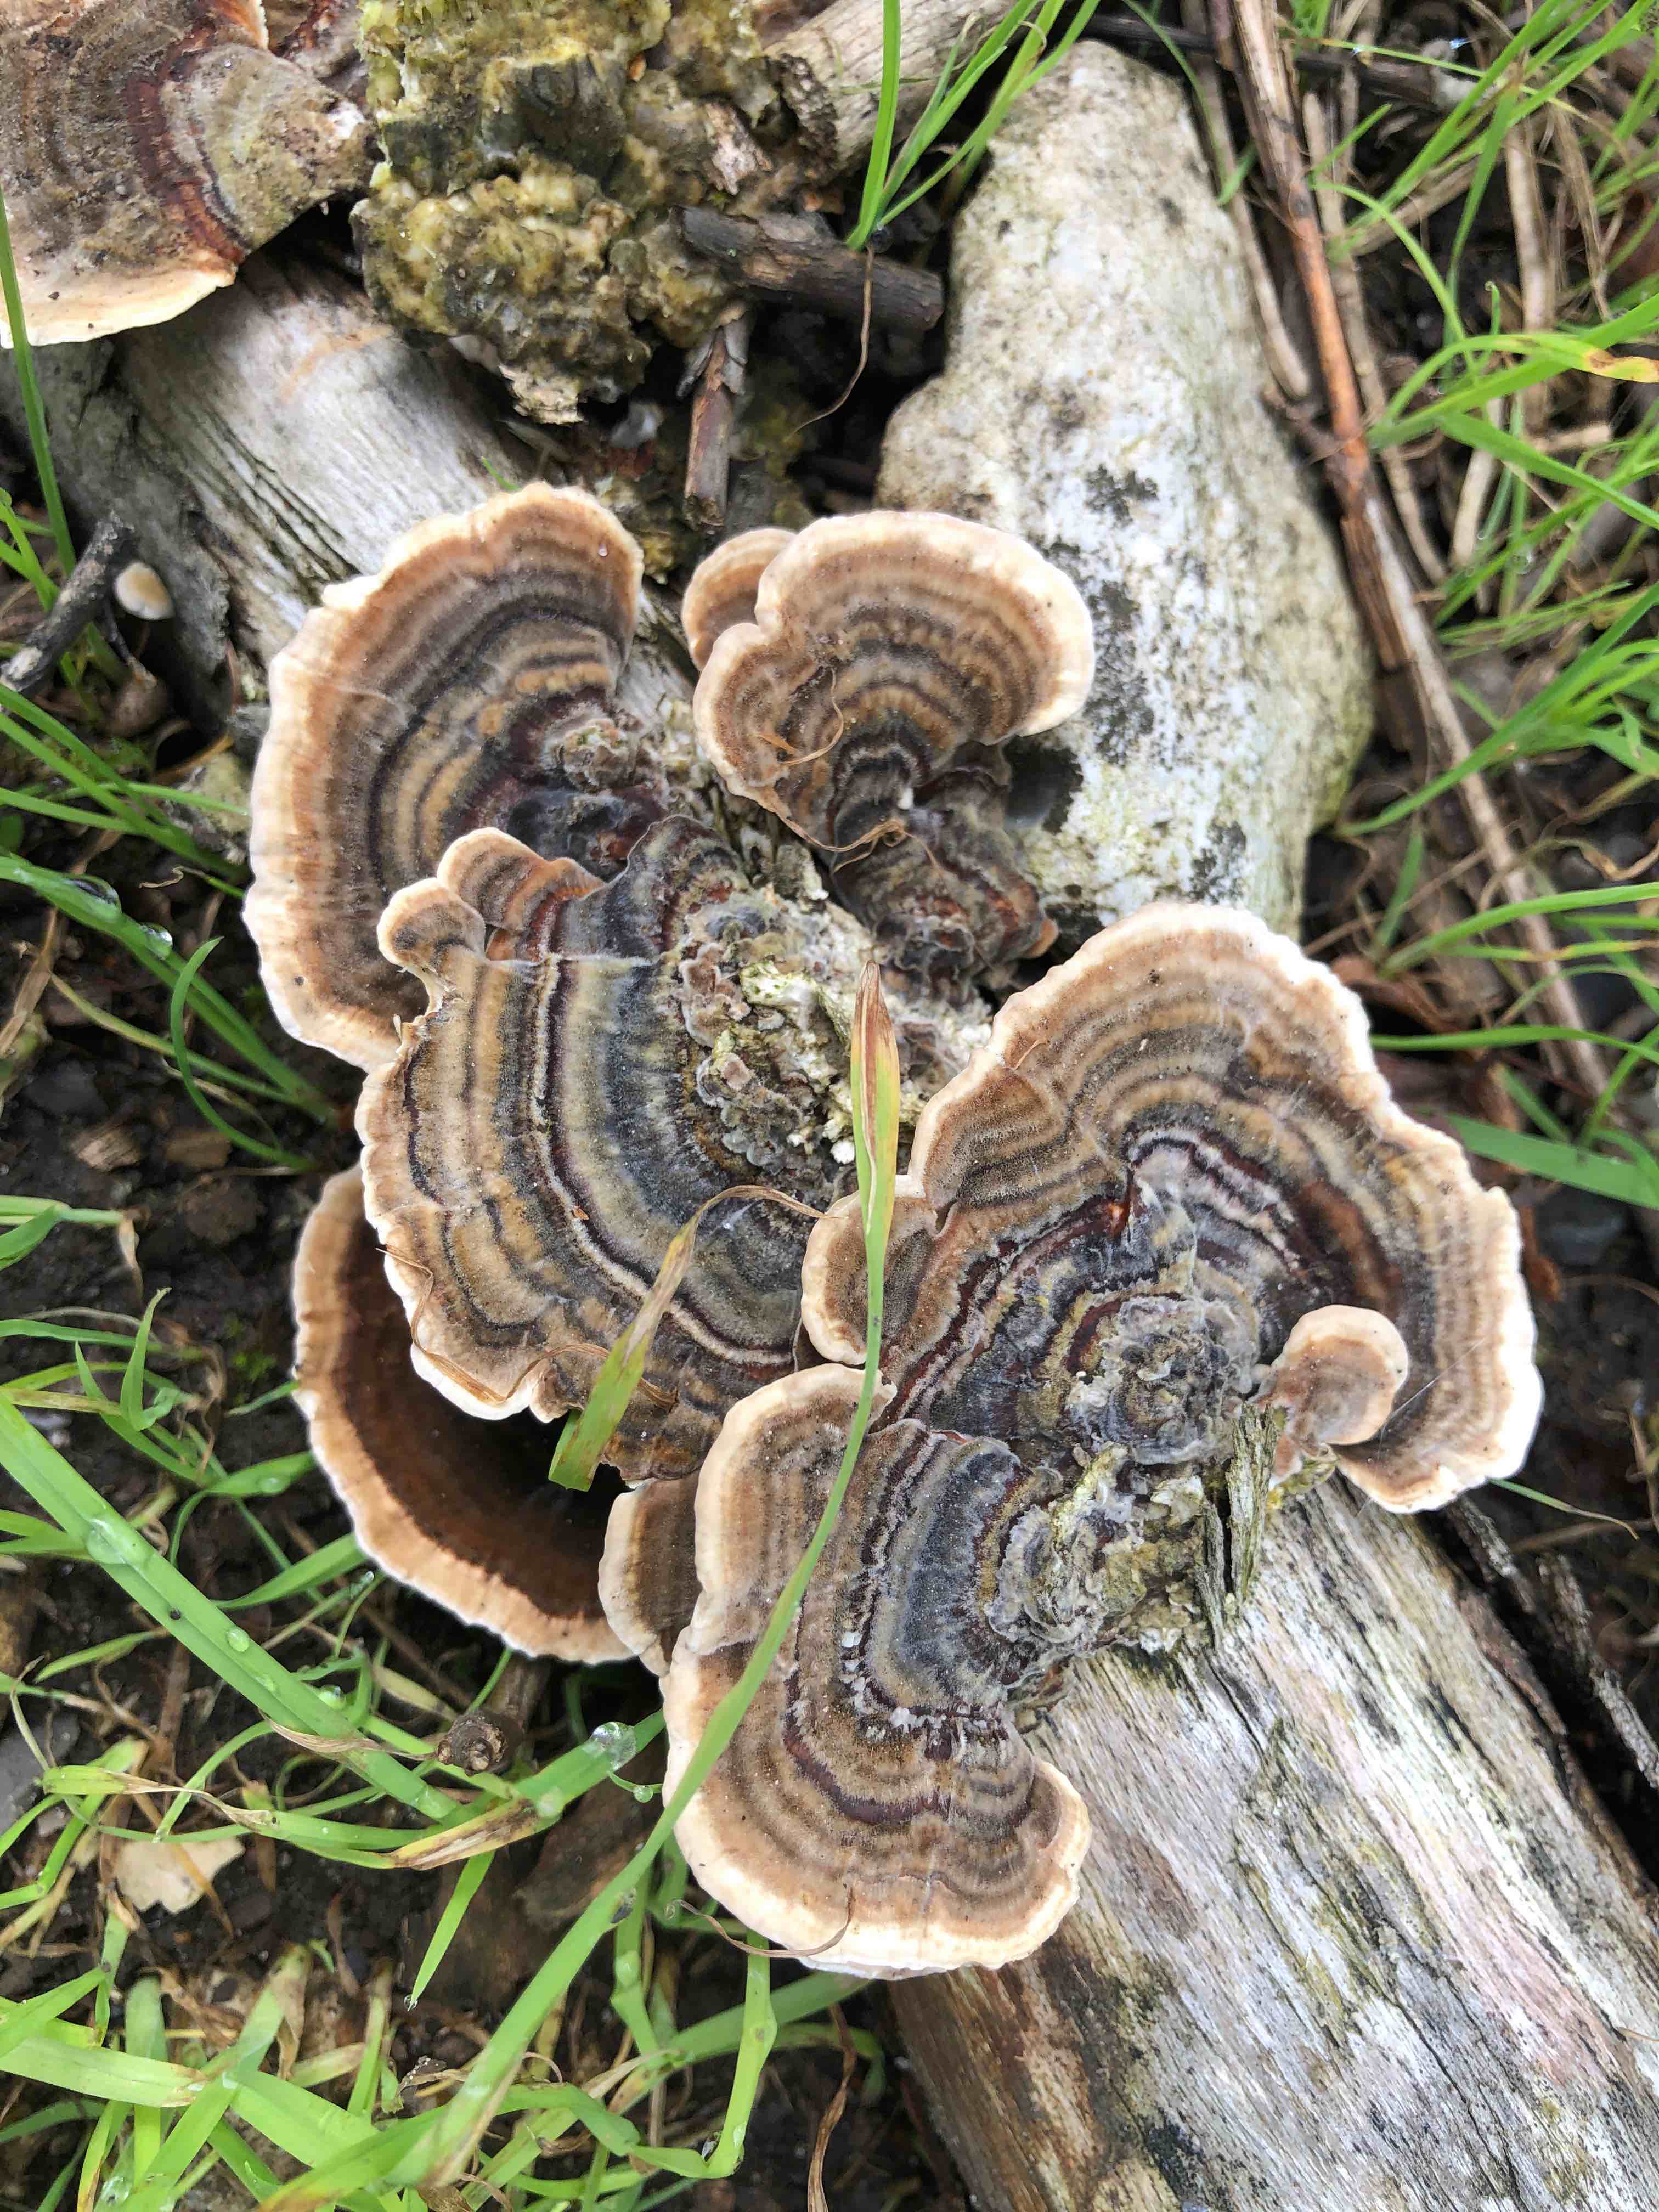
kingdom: Fungi
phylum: Basidiomycota
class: Agaricomycetes
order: Polyporales
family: Polyporaceae
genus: Trametes
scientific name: Trametes versicolor
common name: broget læderporesvamp
